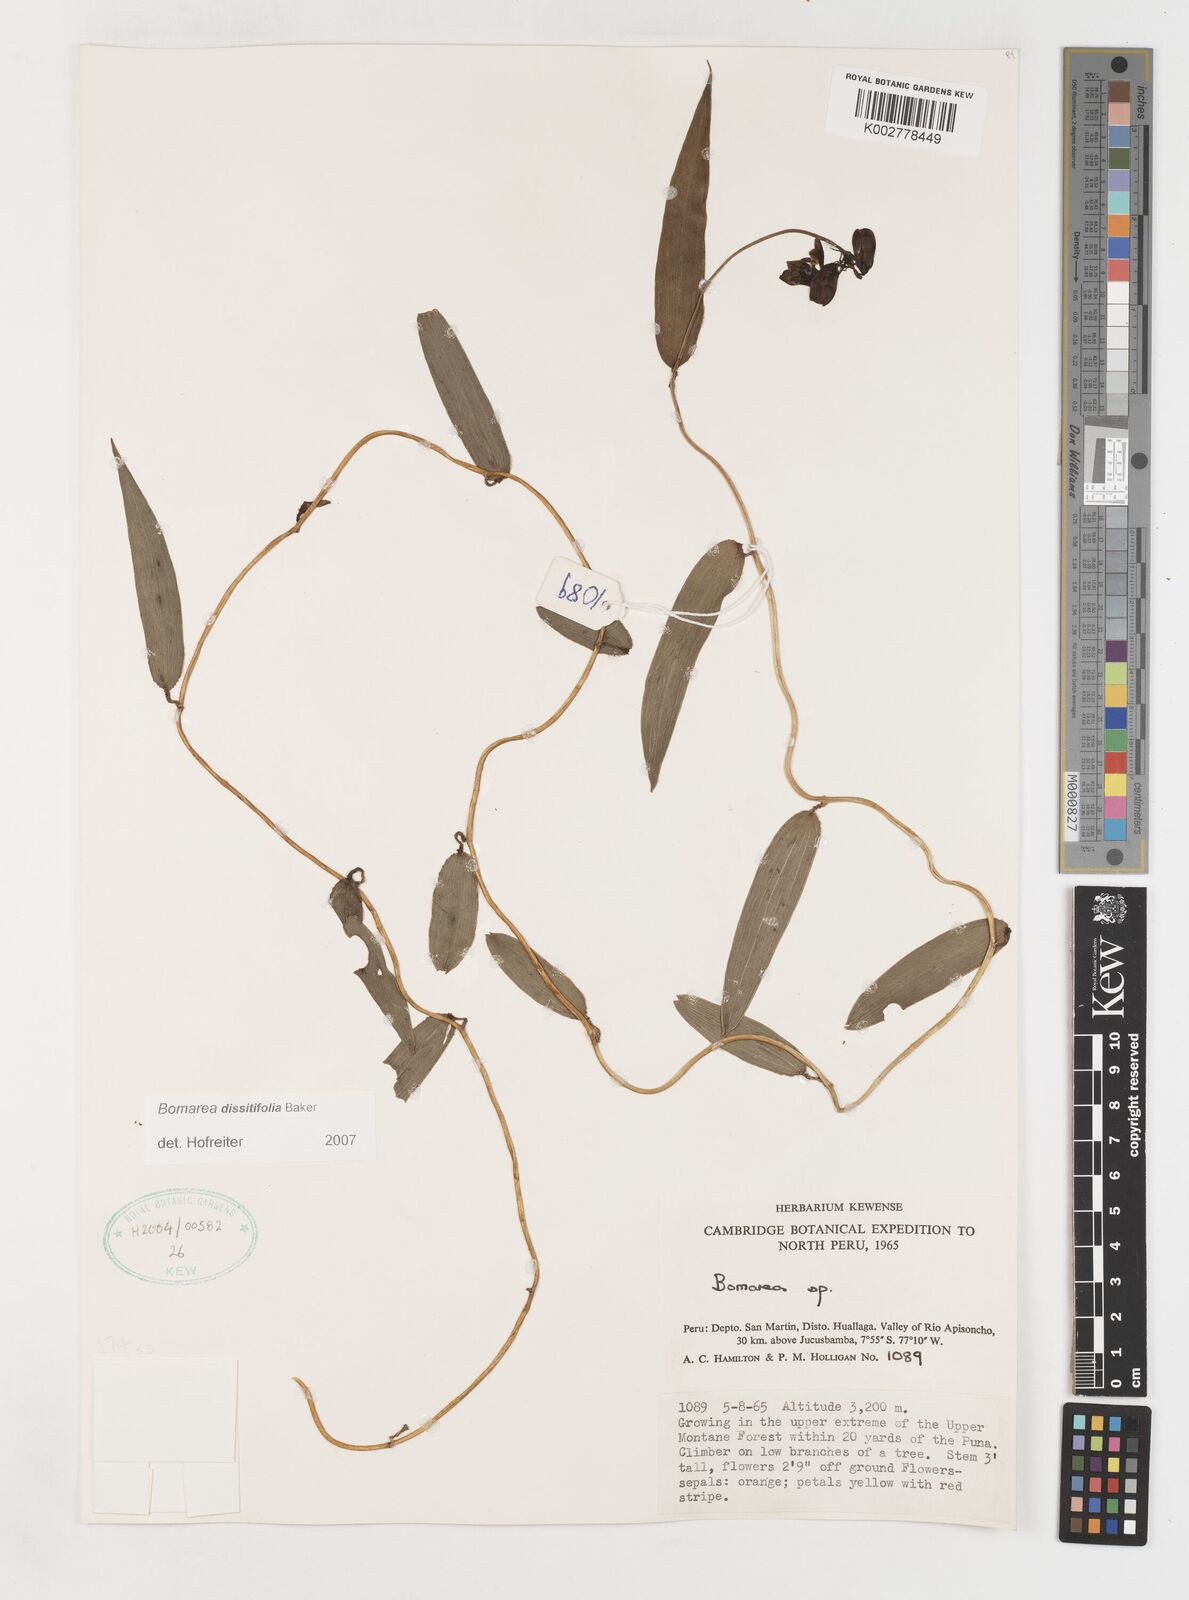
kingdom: Plantae
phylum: Tracheophyta
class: Liliopsida
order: Liliales
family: Alstroemeriaceae
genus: Bomarea
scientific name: Bomarea dissitifolia
